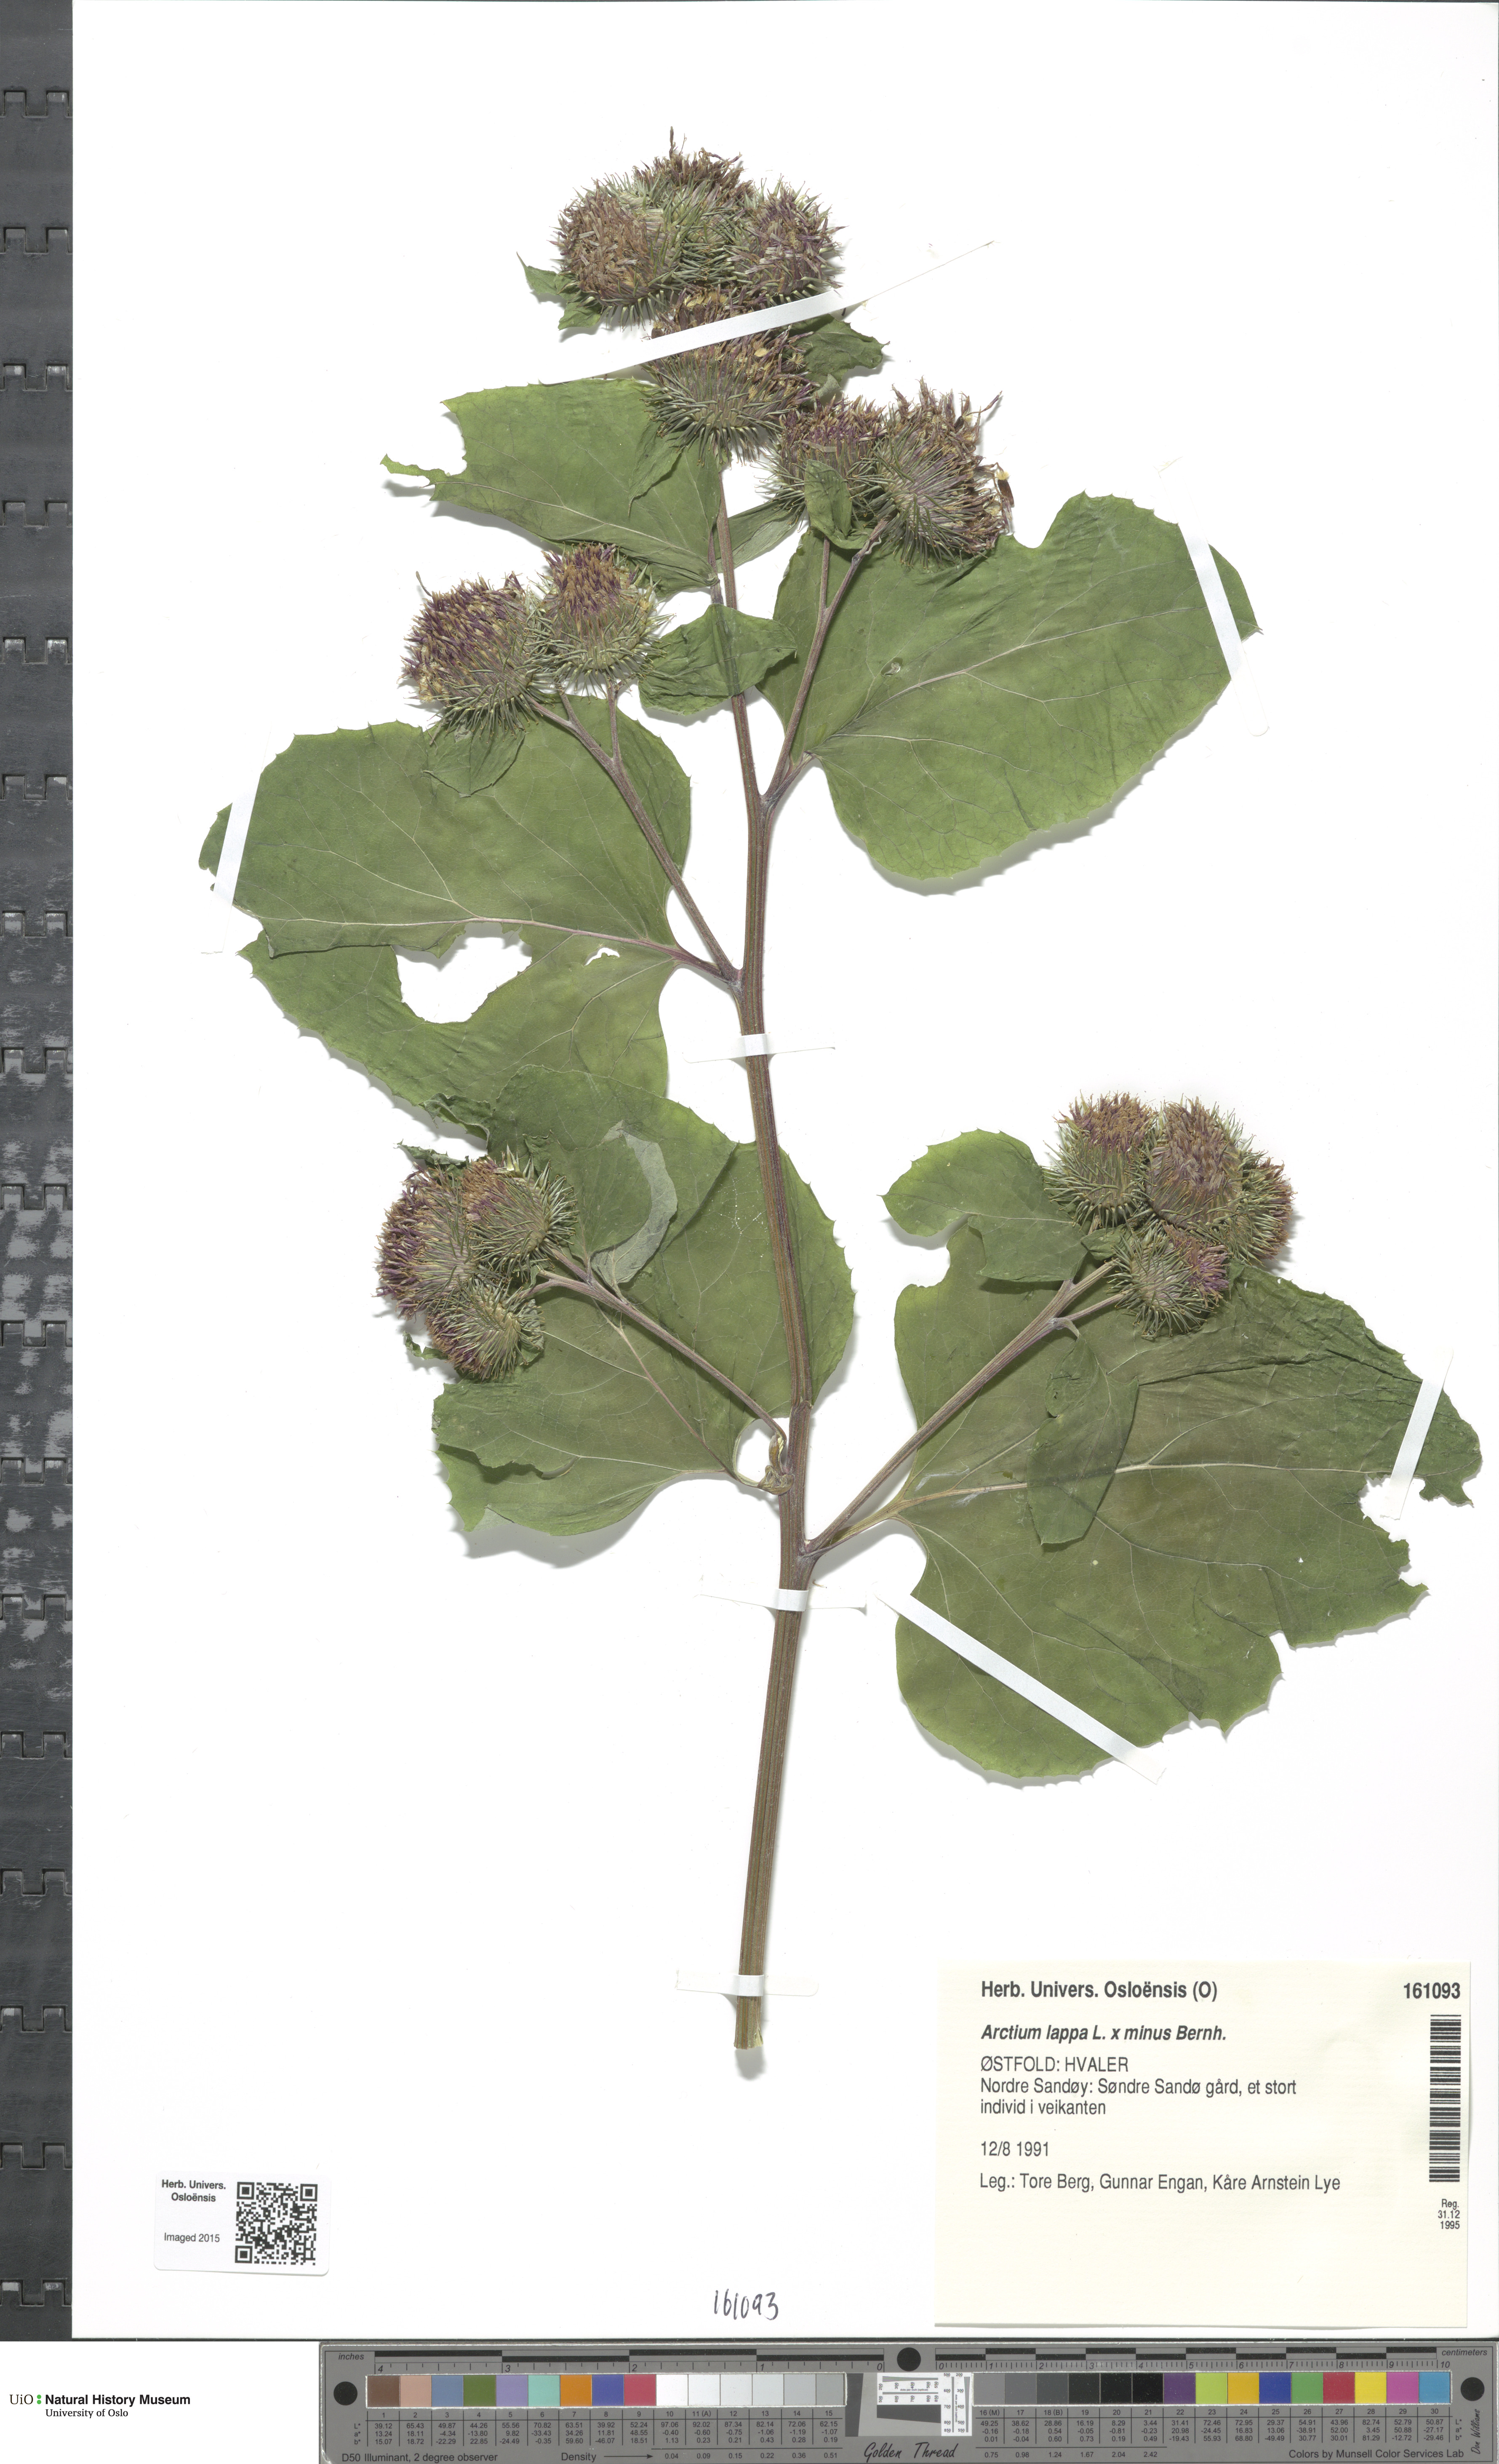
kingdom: Plantae
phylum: Tracheophyta
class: Magnoliopsida
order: Asterales
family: Asteraceae
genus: Arctium
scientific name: Arctium
